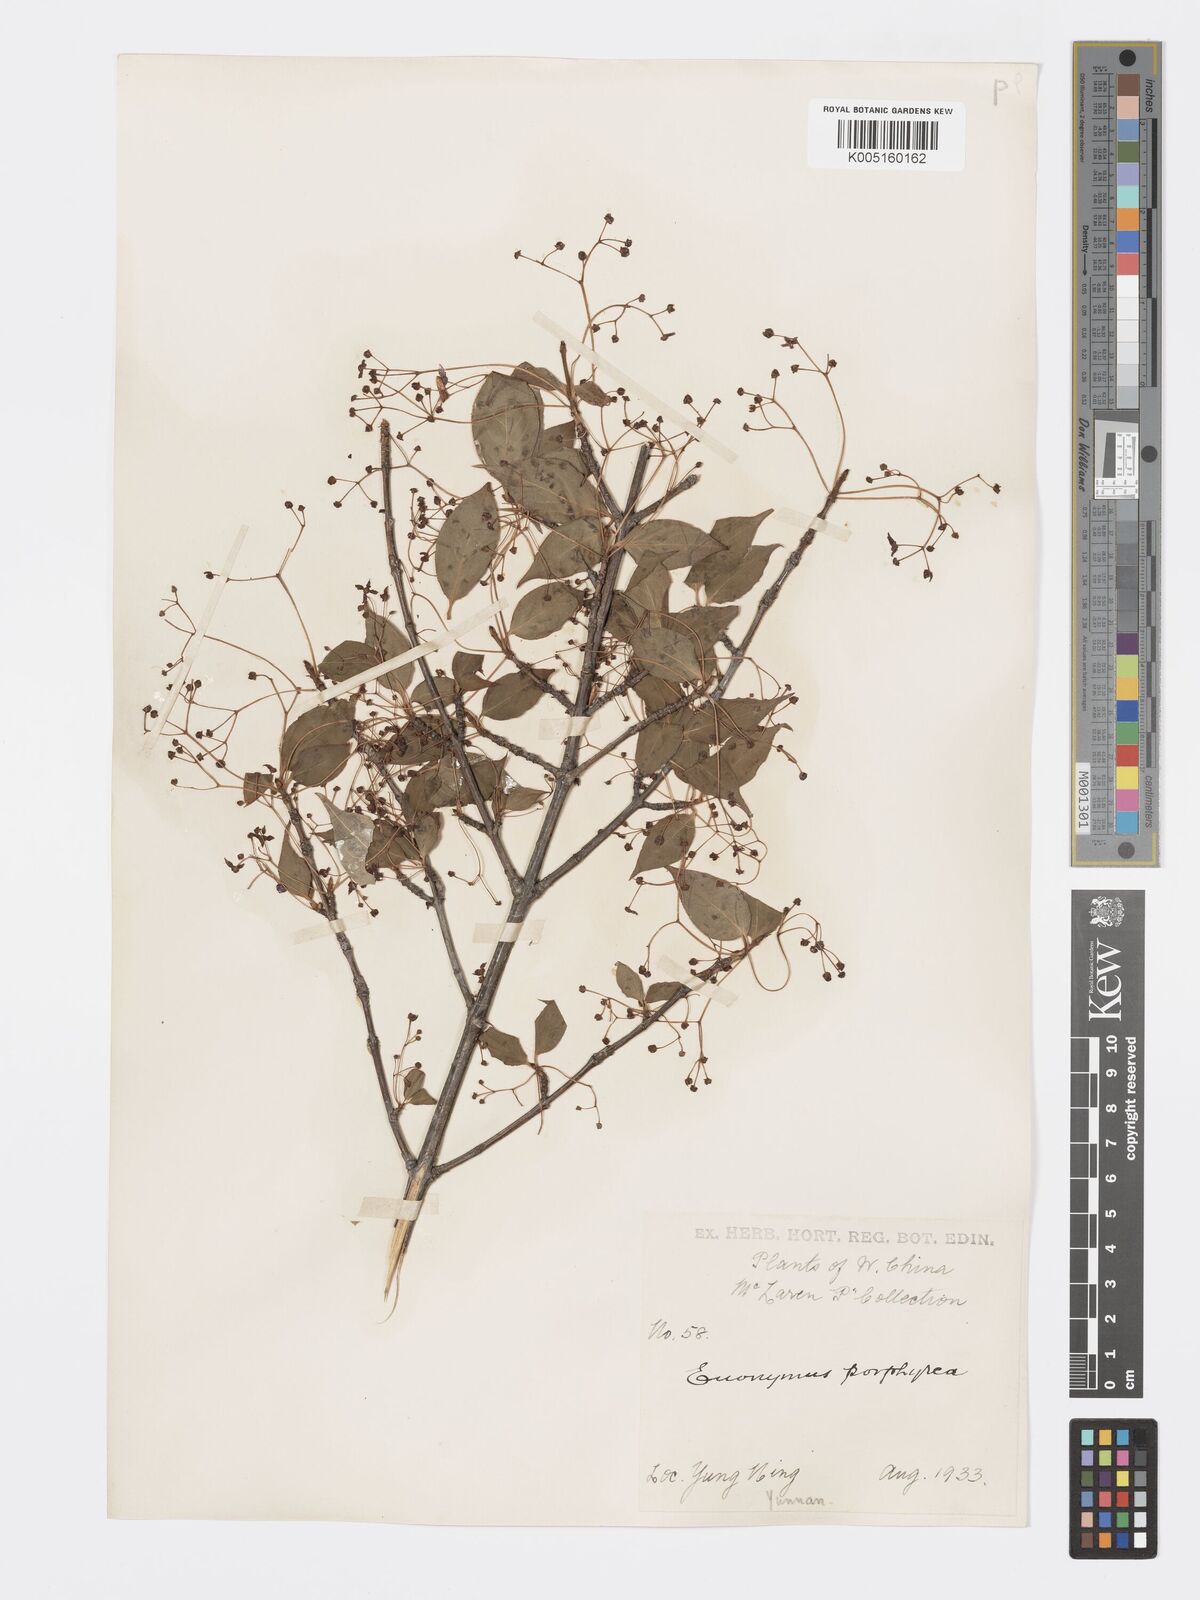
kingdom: Plantae
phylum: Tracheophyta
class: Magnoliopsida
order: Celastrales
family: Celastraceae
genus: Euonymus
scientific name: Euonymus frigidus
